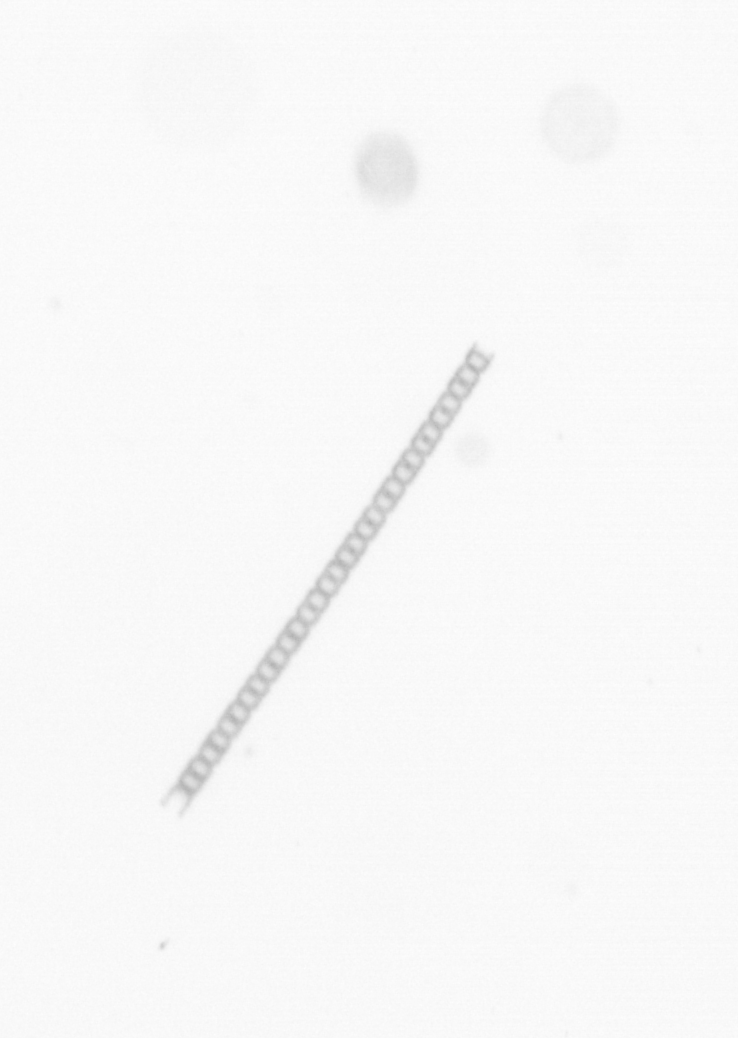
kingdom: Chromista
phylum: Ochrophyta
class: Bacillariophyceae
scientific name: Bacillariophyceae
